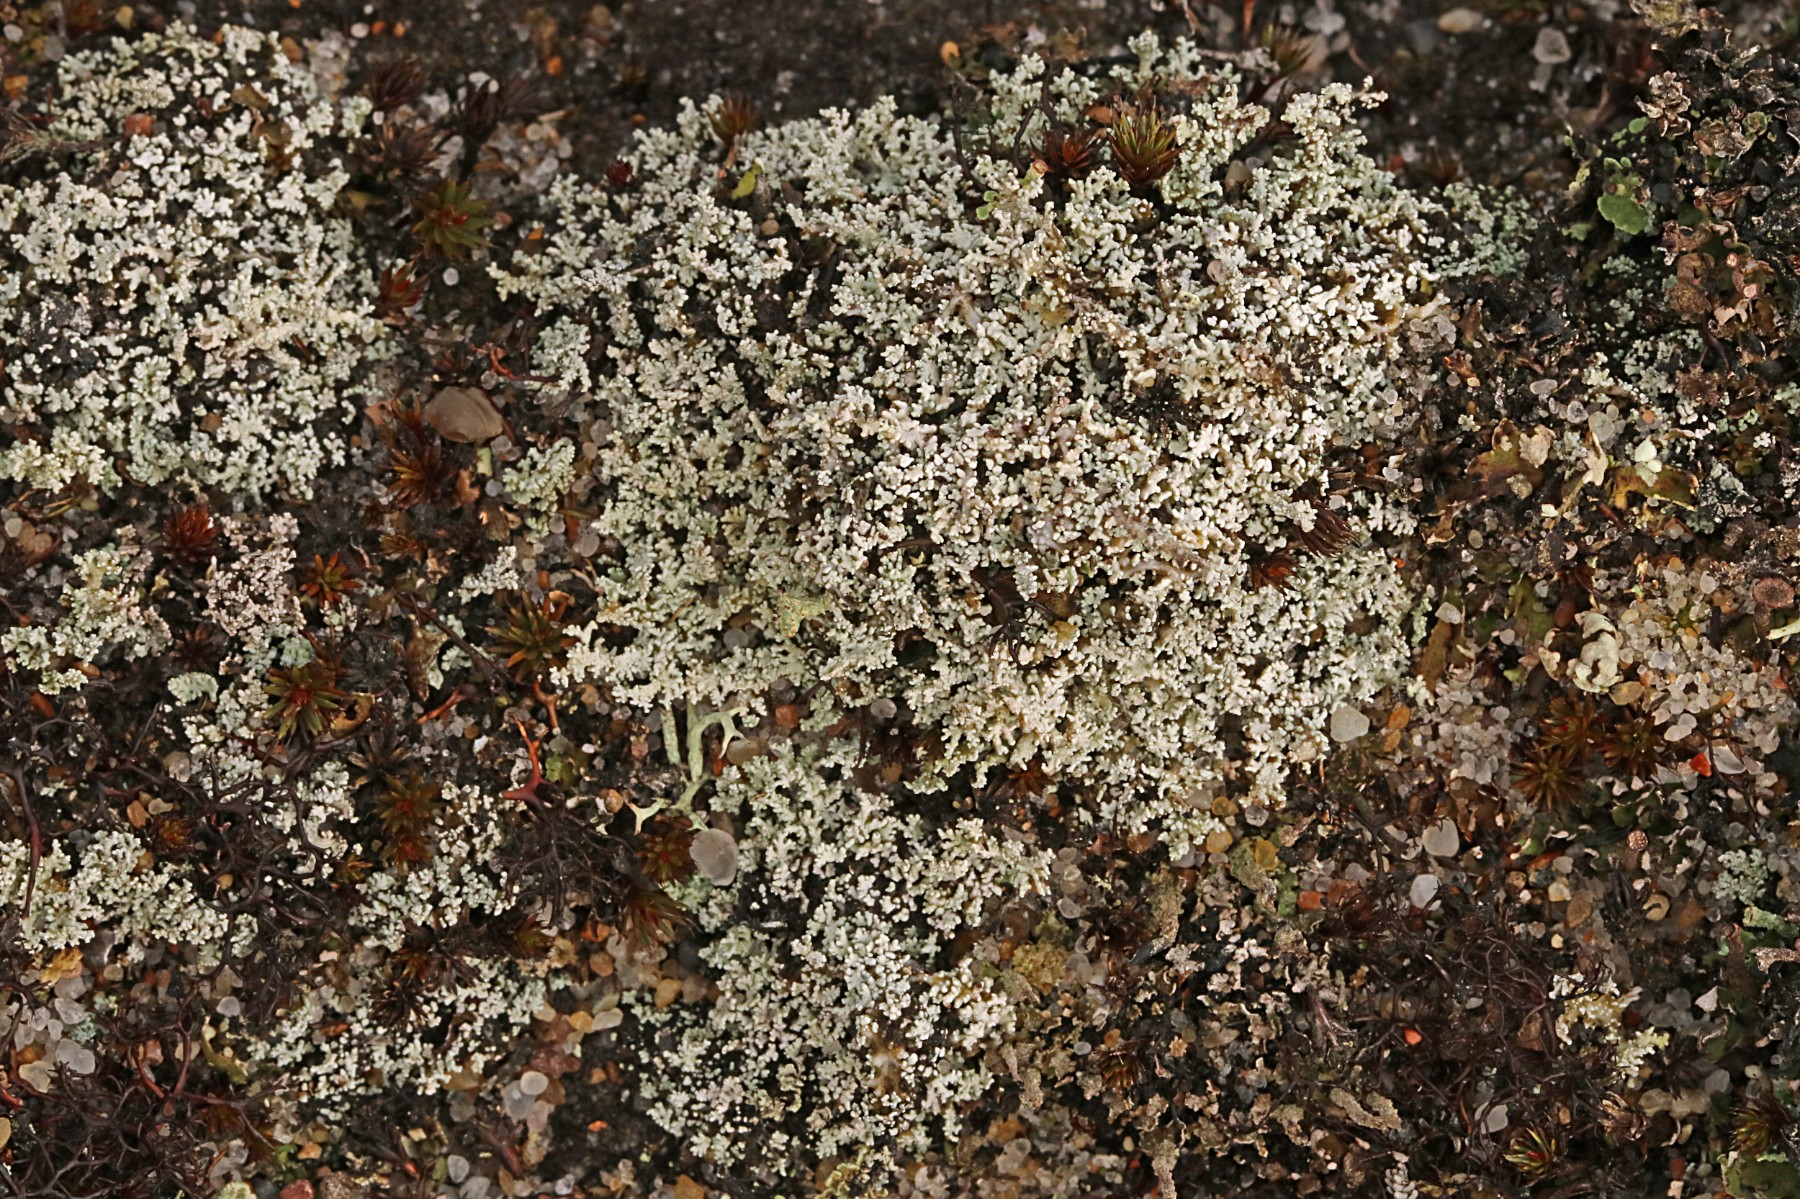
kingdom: Fungi
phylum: Ascomycota
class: Lecanoromycetes
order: Lecanorales
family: Stereocaulaceae
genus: Stereocaulon
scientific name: Stereocaulon condensatum
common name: lav korallav
